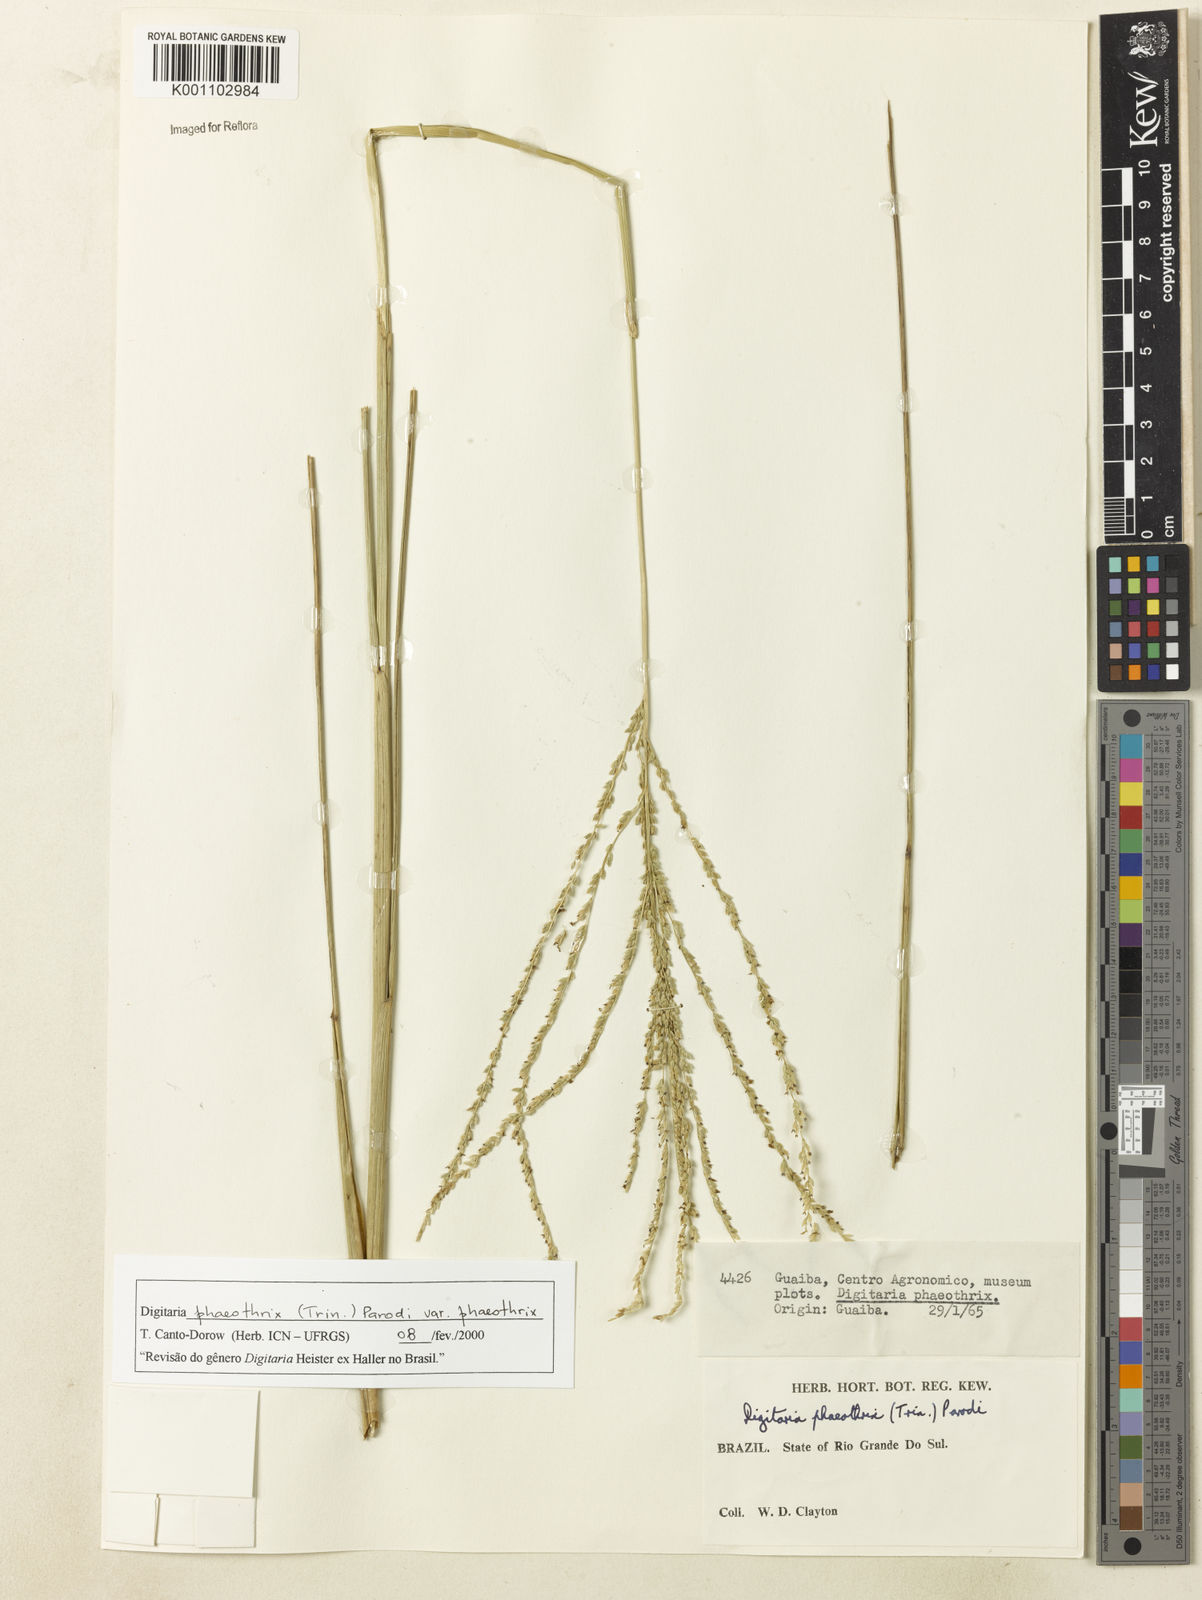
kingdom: Plantae
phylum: Tracheophyta
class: Liliopsida
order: Poales
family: Poaceae
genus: Digitaria
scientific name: Digitaria phaeothrix
